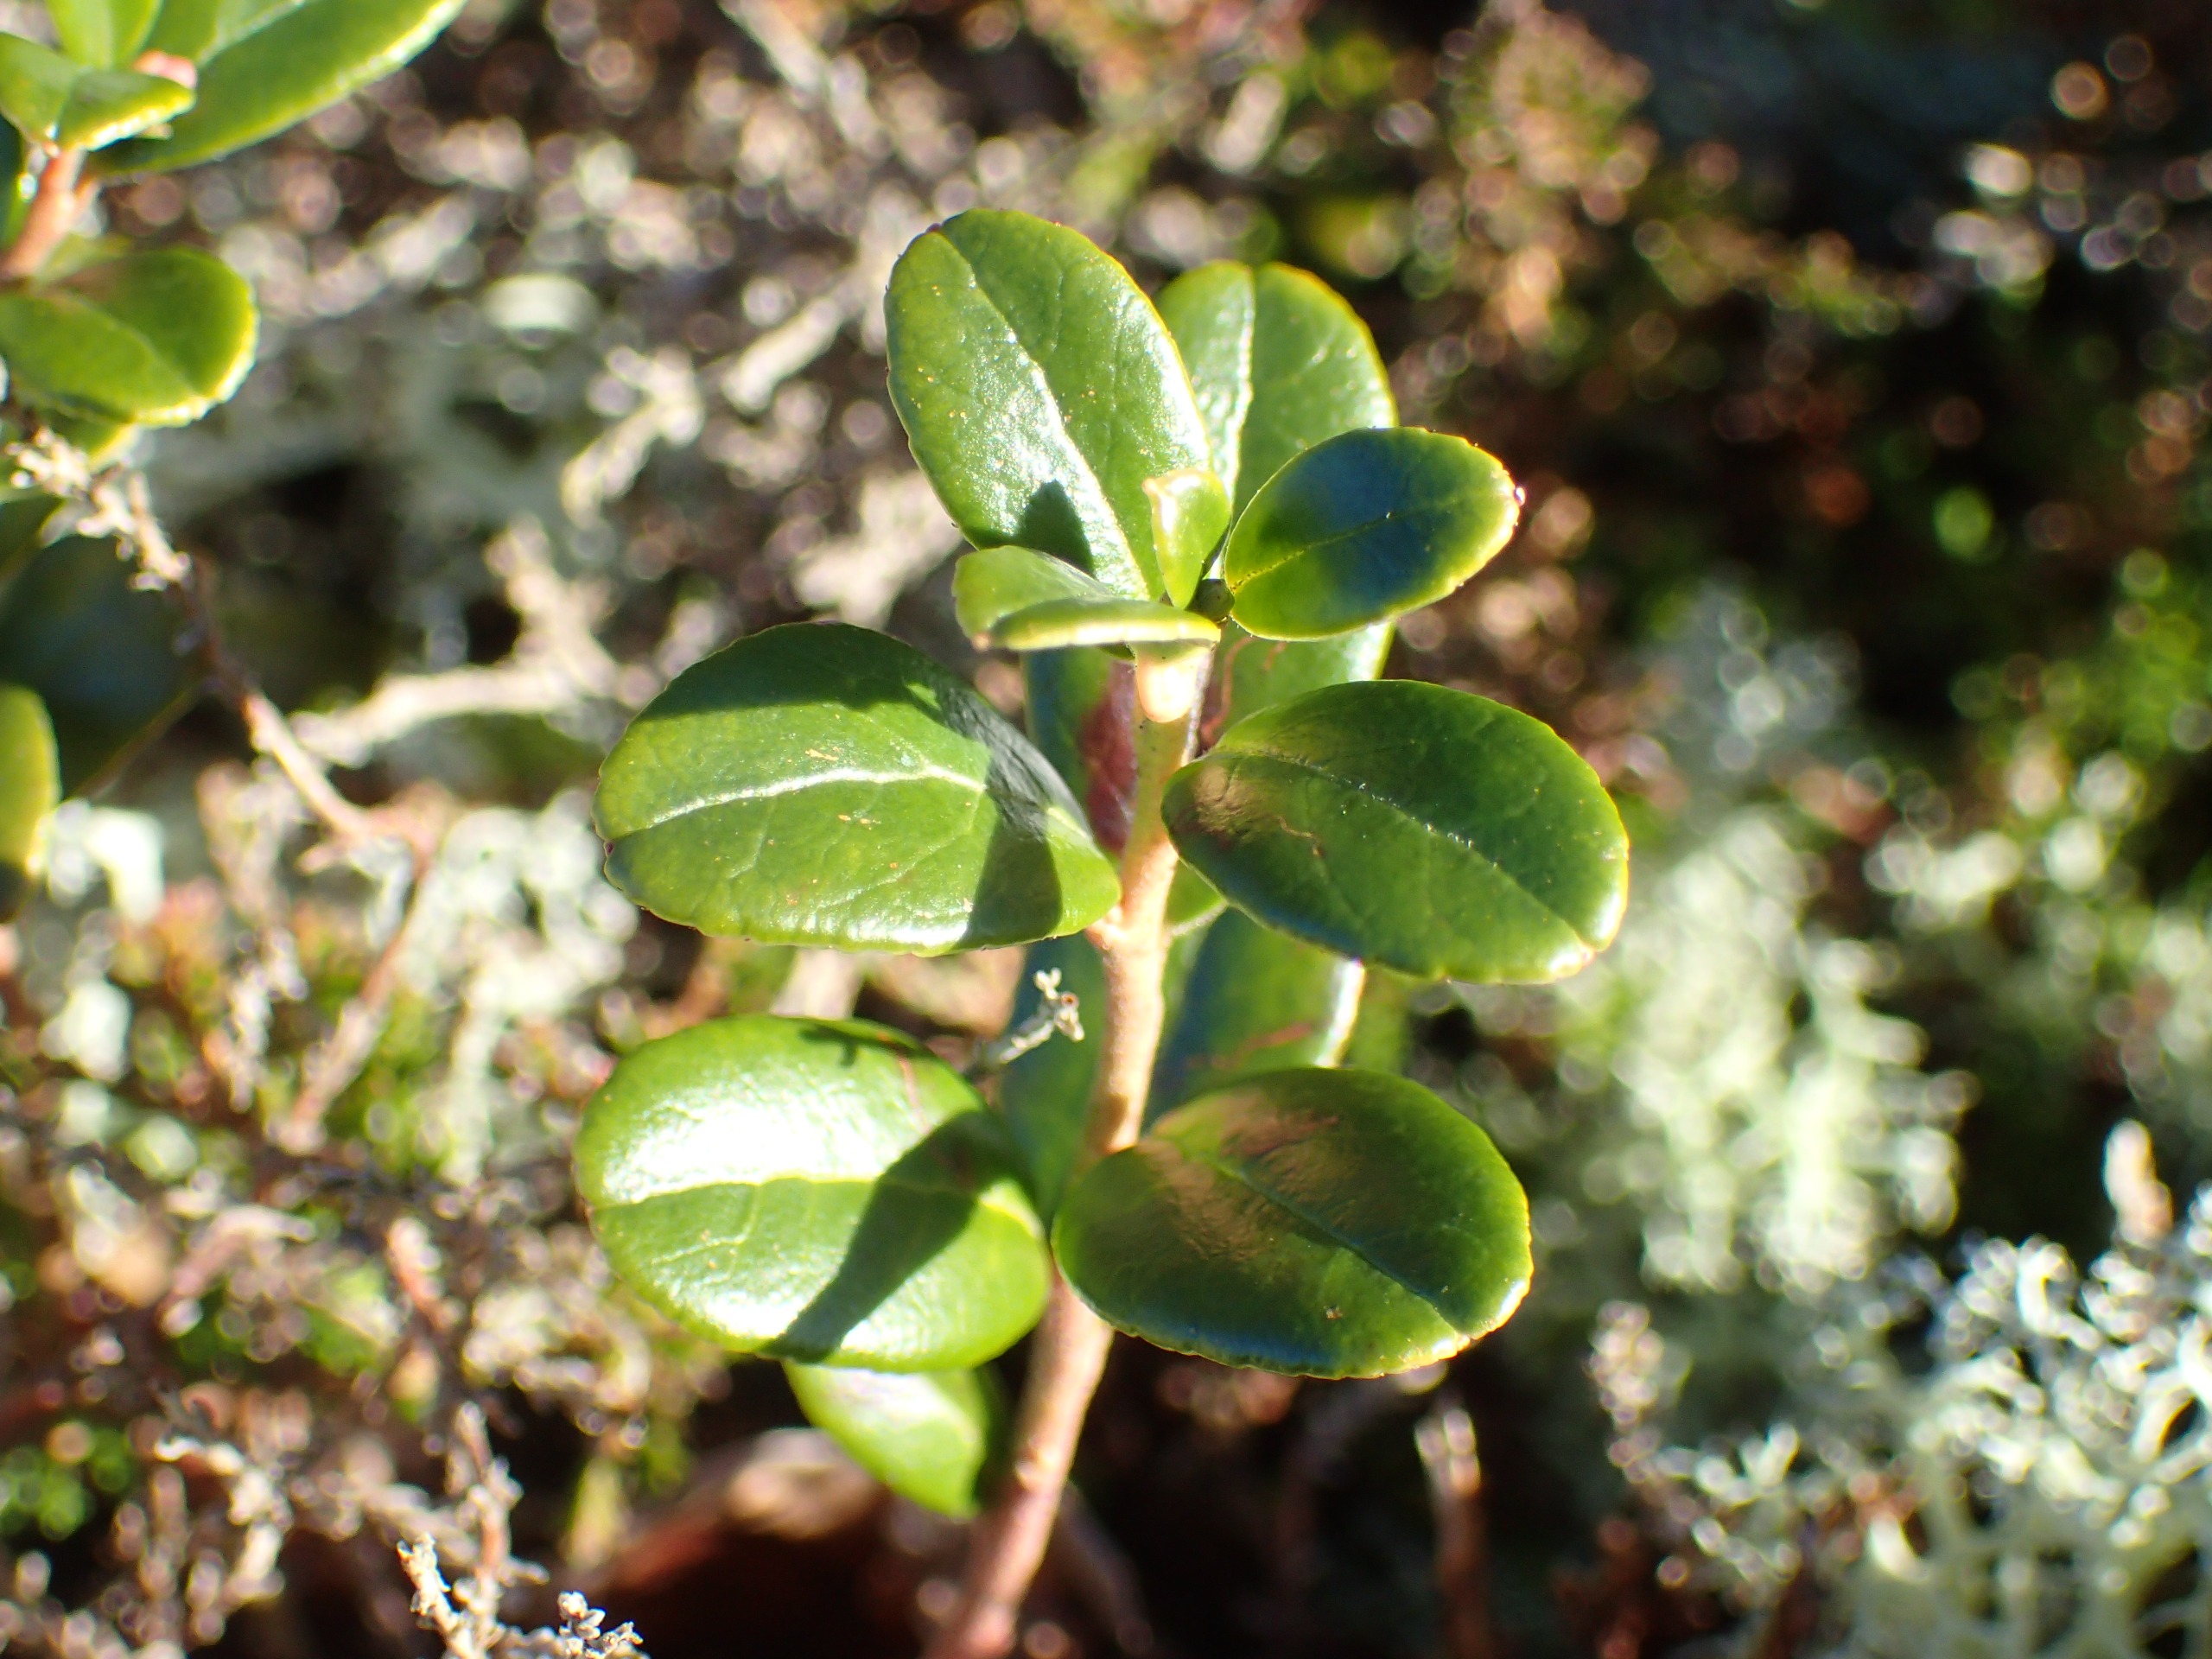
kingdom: Plantae
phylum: Tracheophyta
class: Magnoliopsida
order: Ericales
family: Ericaceae
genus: Vaccinium
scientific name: Vaccinium vitis-idaea
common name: Tyttebær
